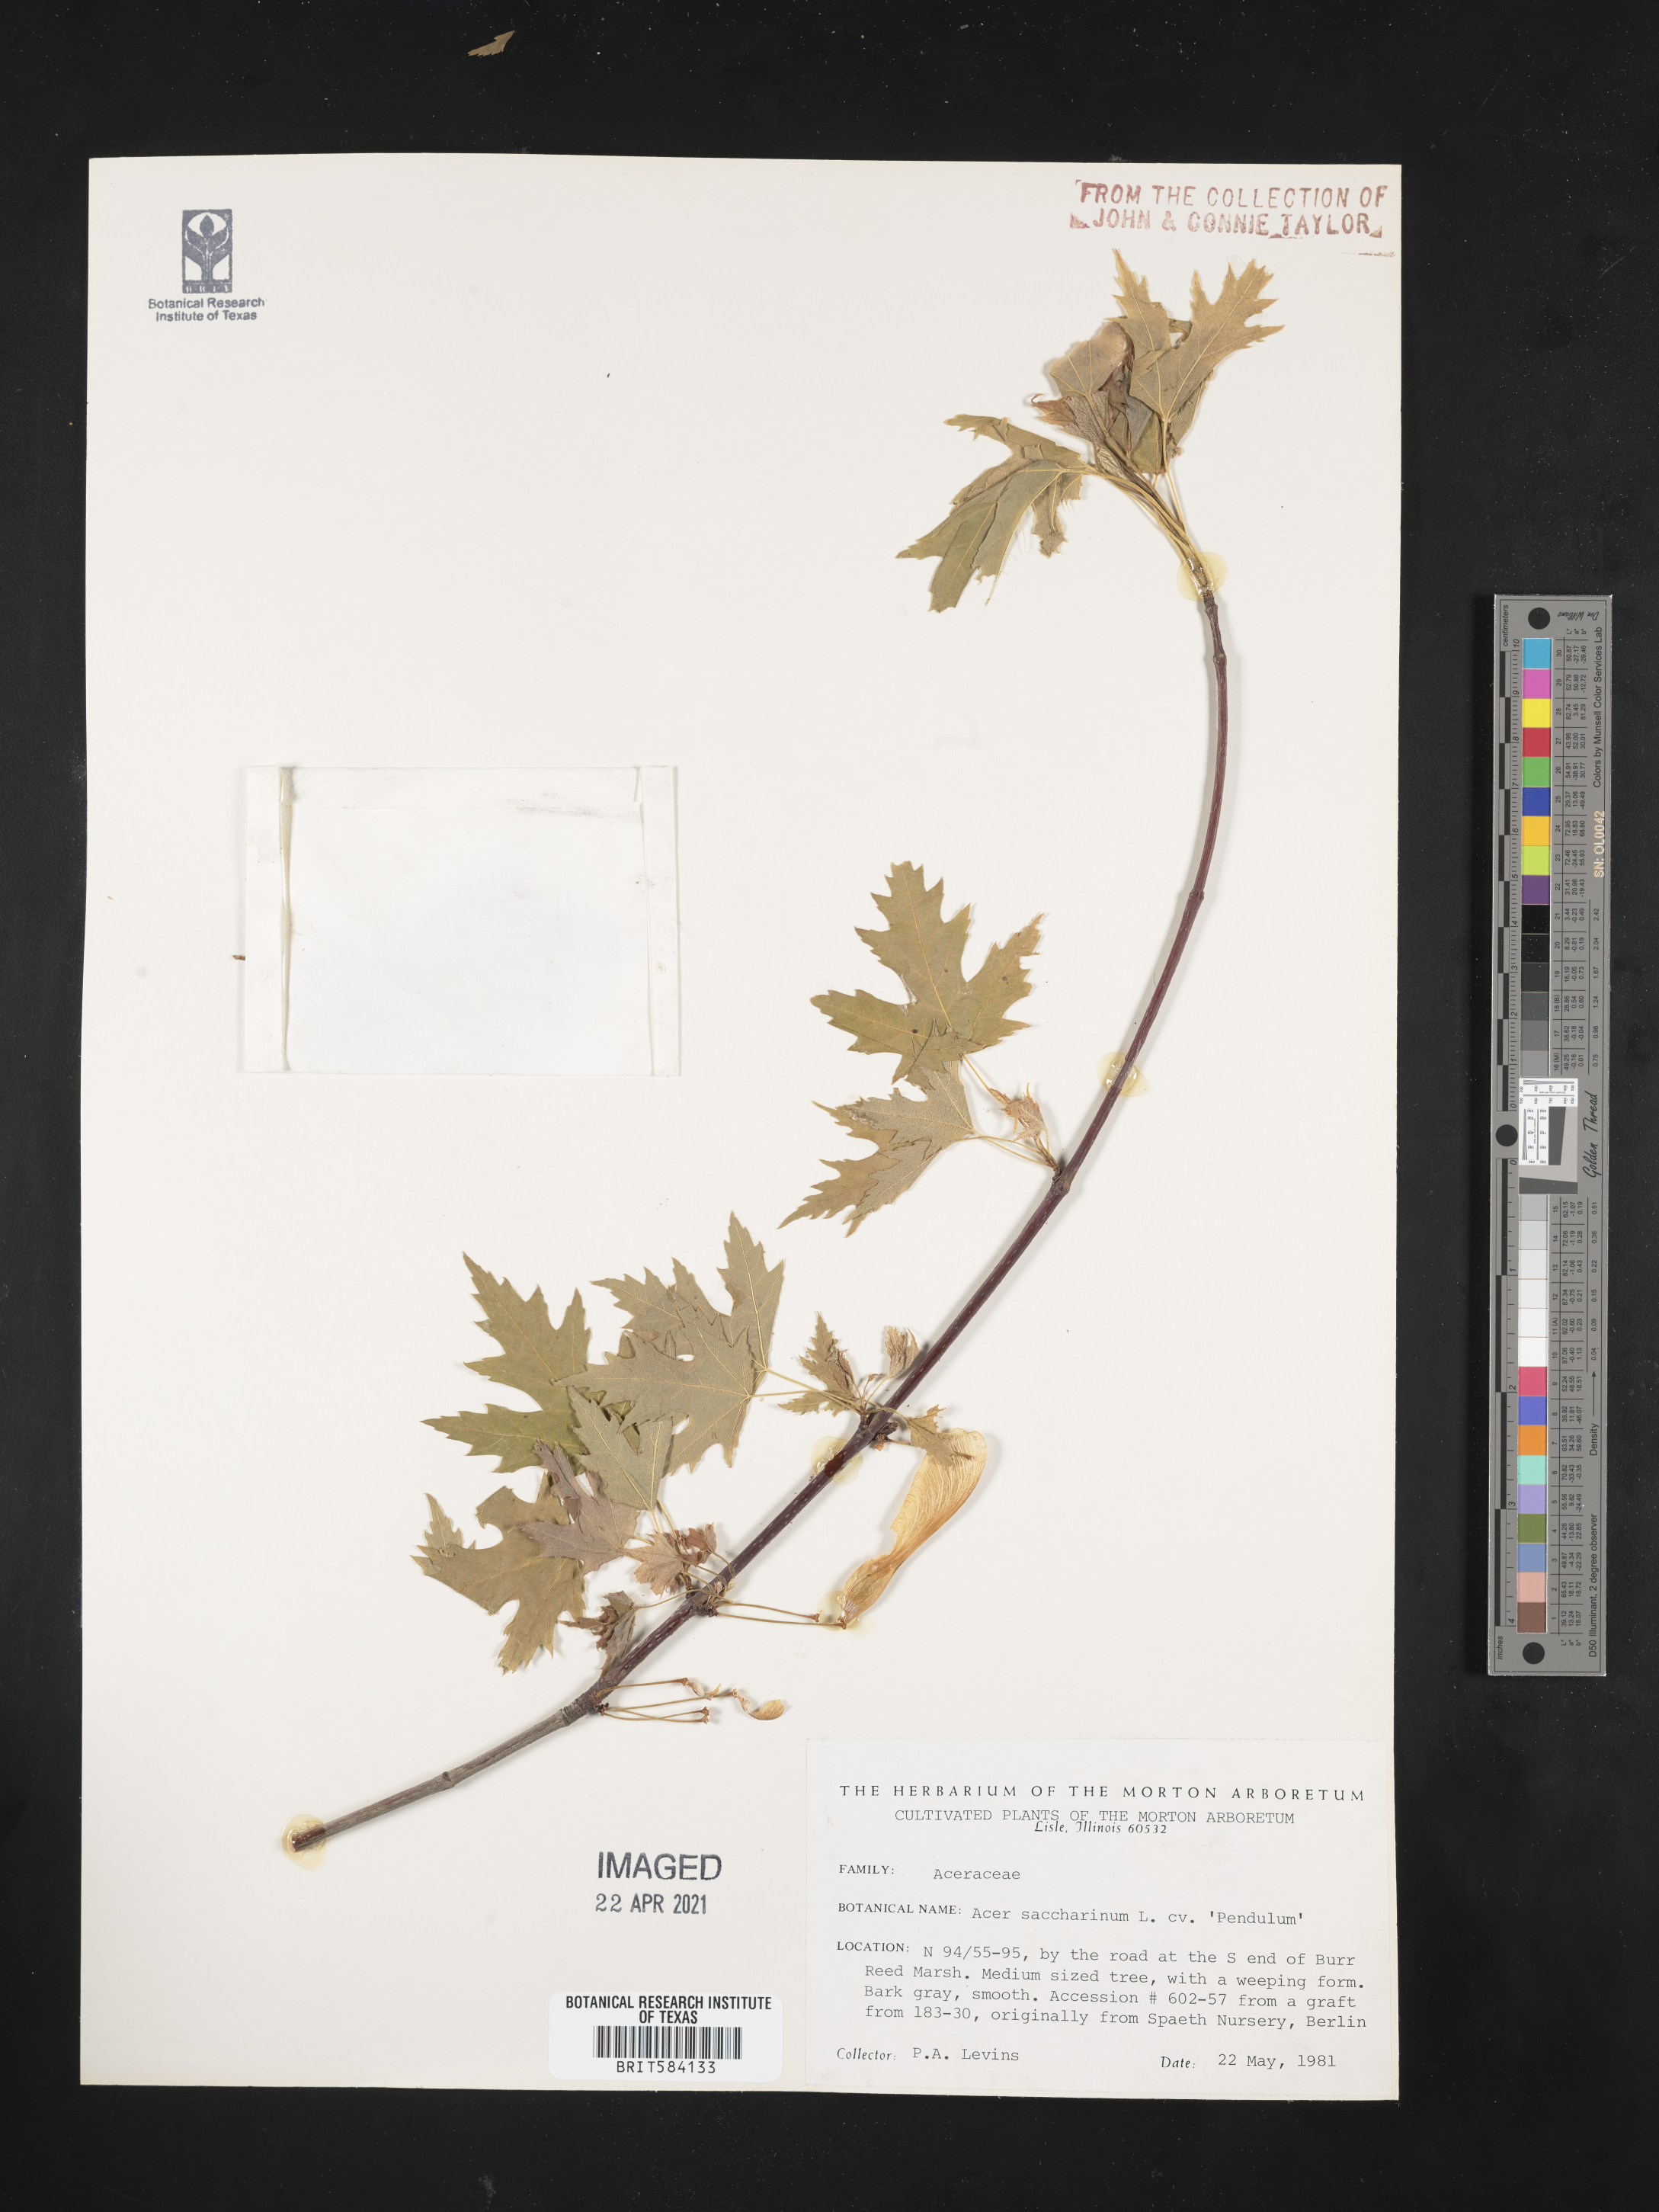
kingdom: Plantae
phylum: Tracheophyta
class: Magnoliopsida
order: Sapindales
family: Sapindaceae
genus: Acer
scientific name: Acer saccharinum
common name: Silver maple
